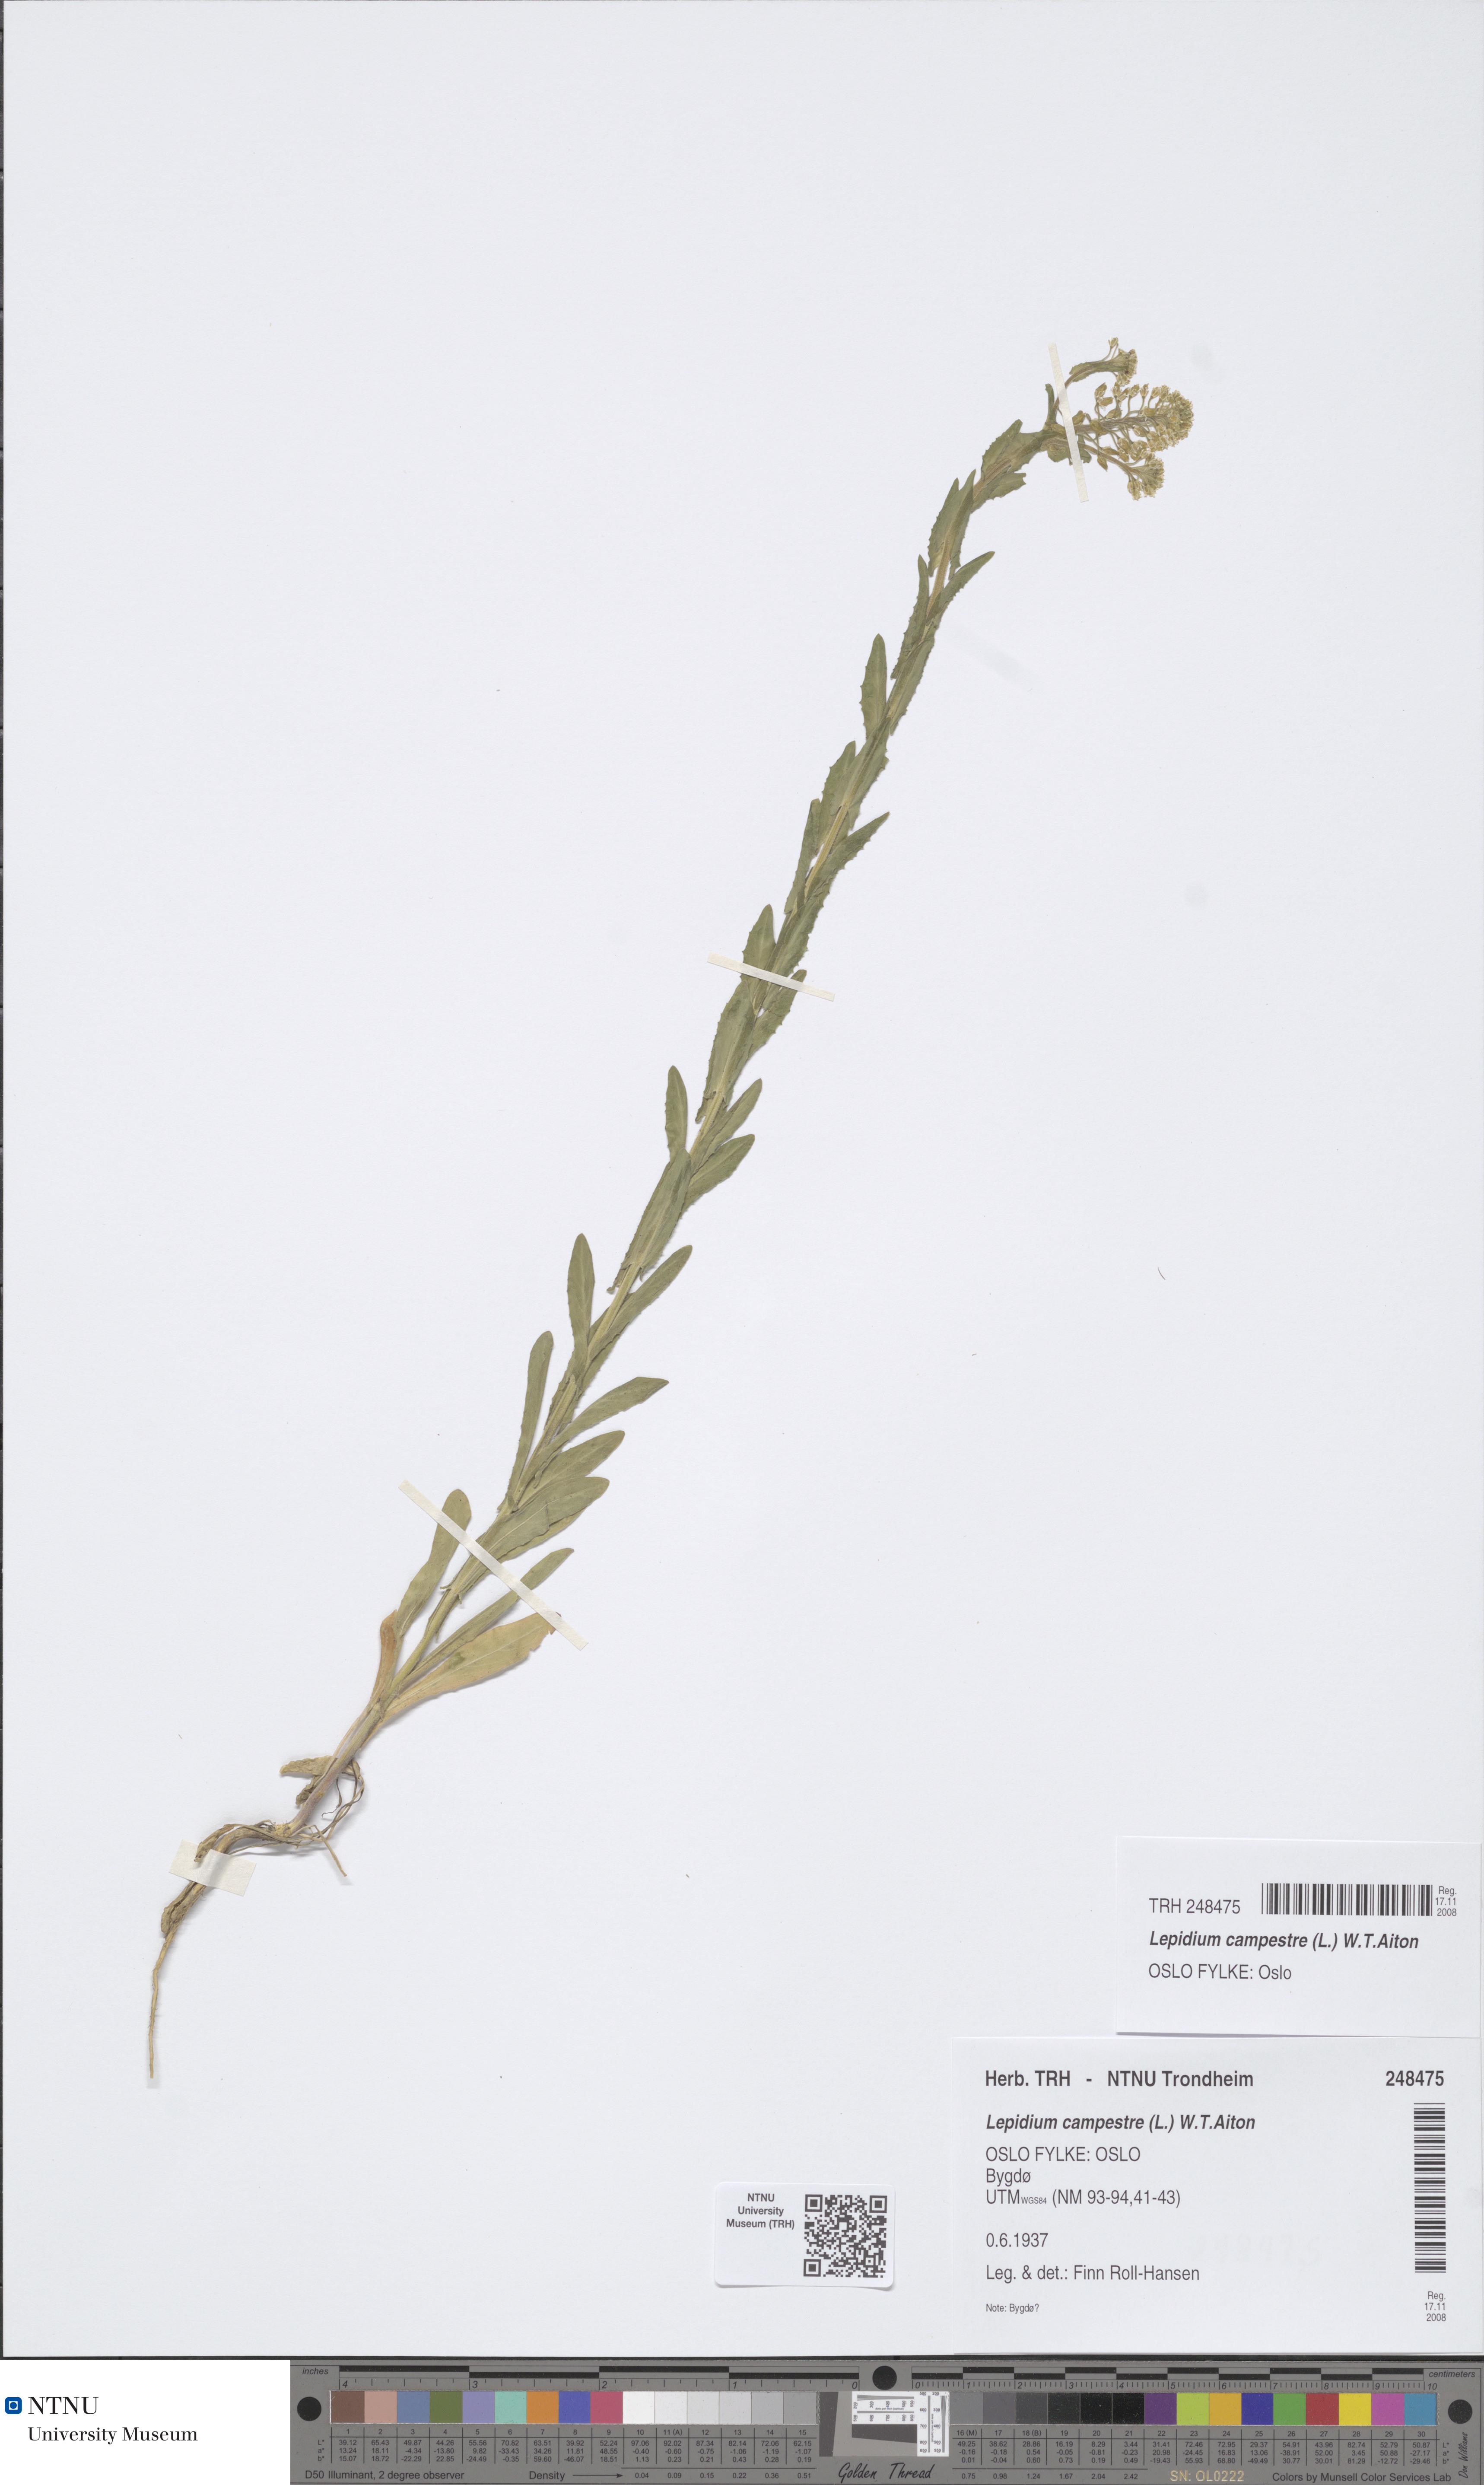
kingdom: Plantae
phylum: Tracheophyta
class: Magnoliopsida
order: Brassicales
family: Brassicaceae
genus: Lepidium
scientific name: Lepidium campestre
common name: Field pepperwort
